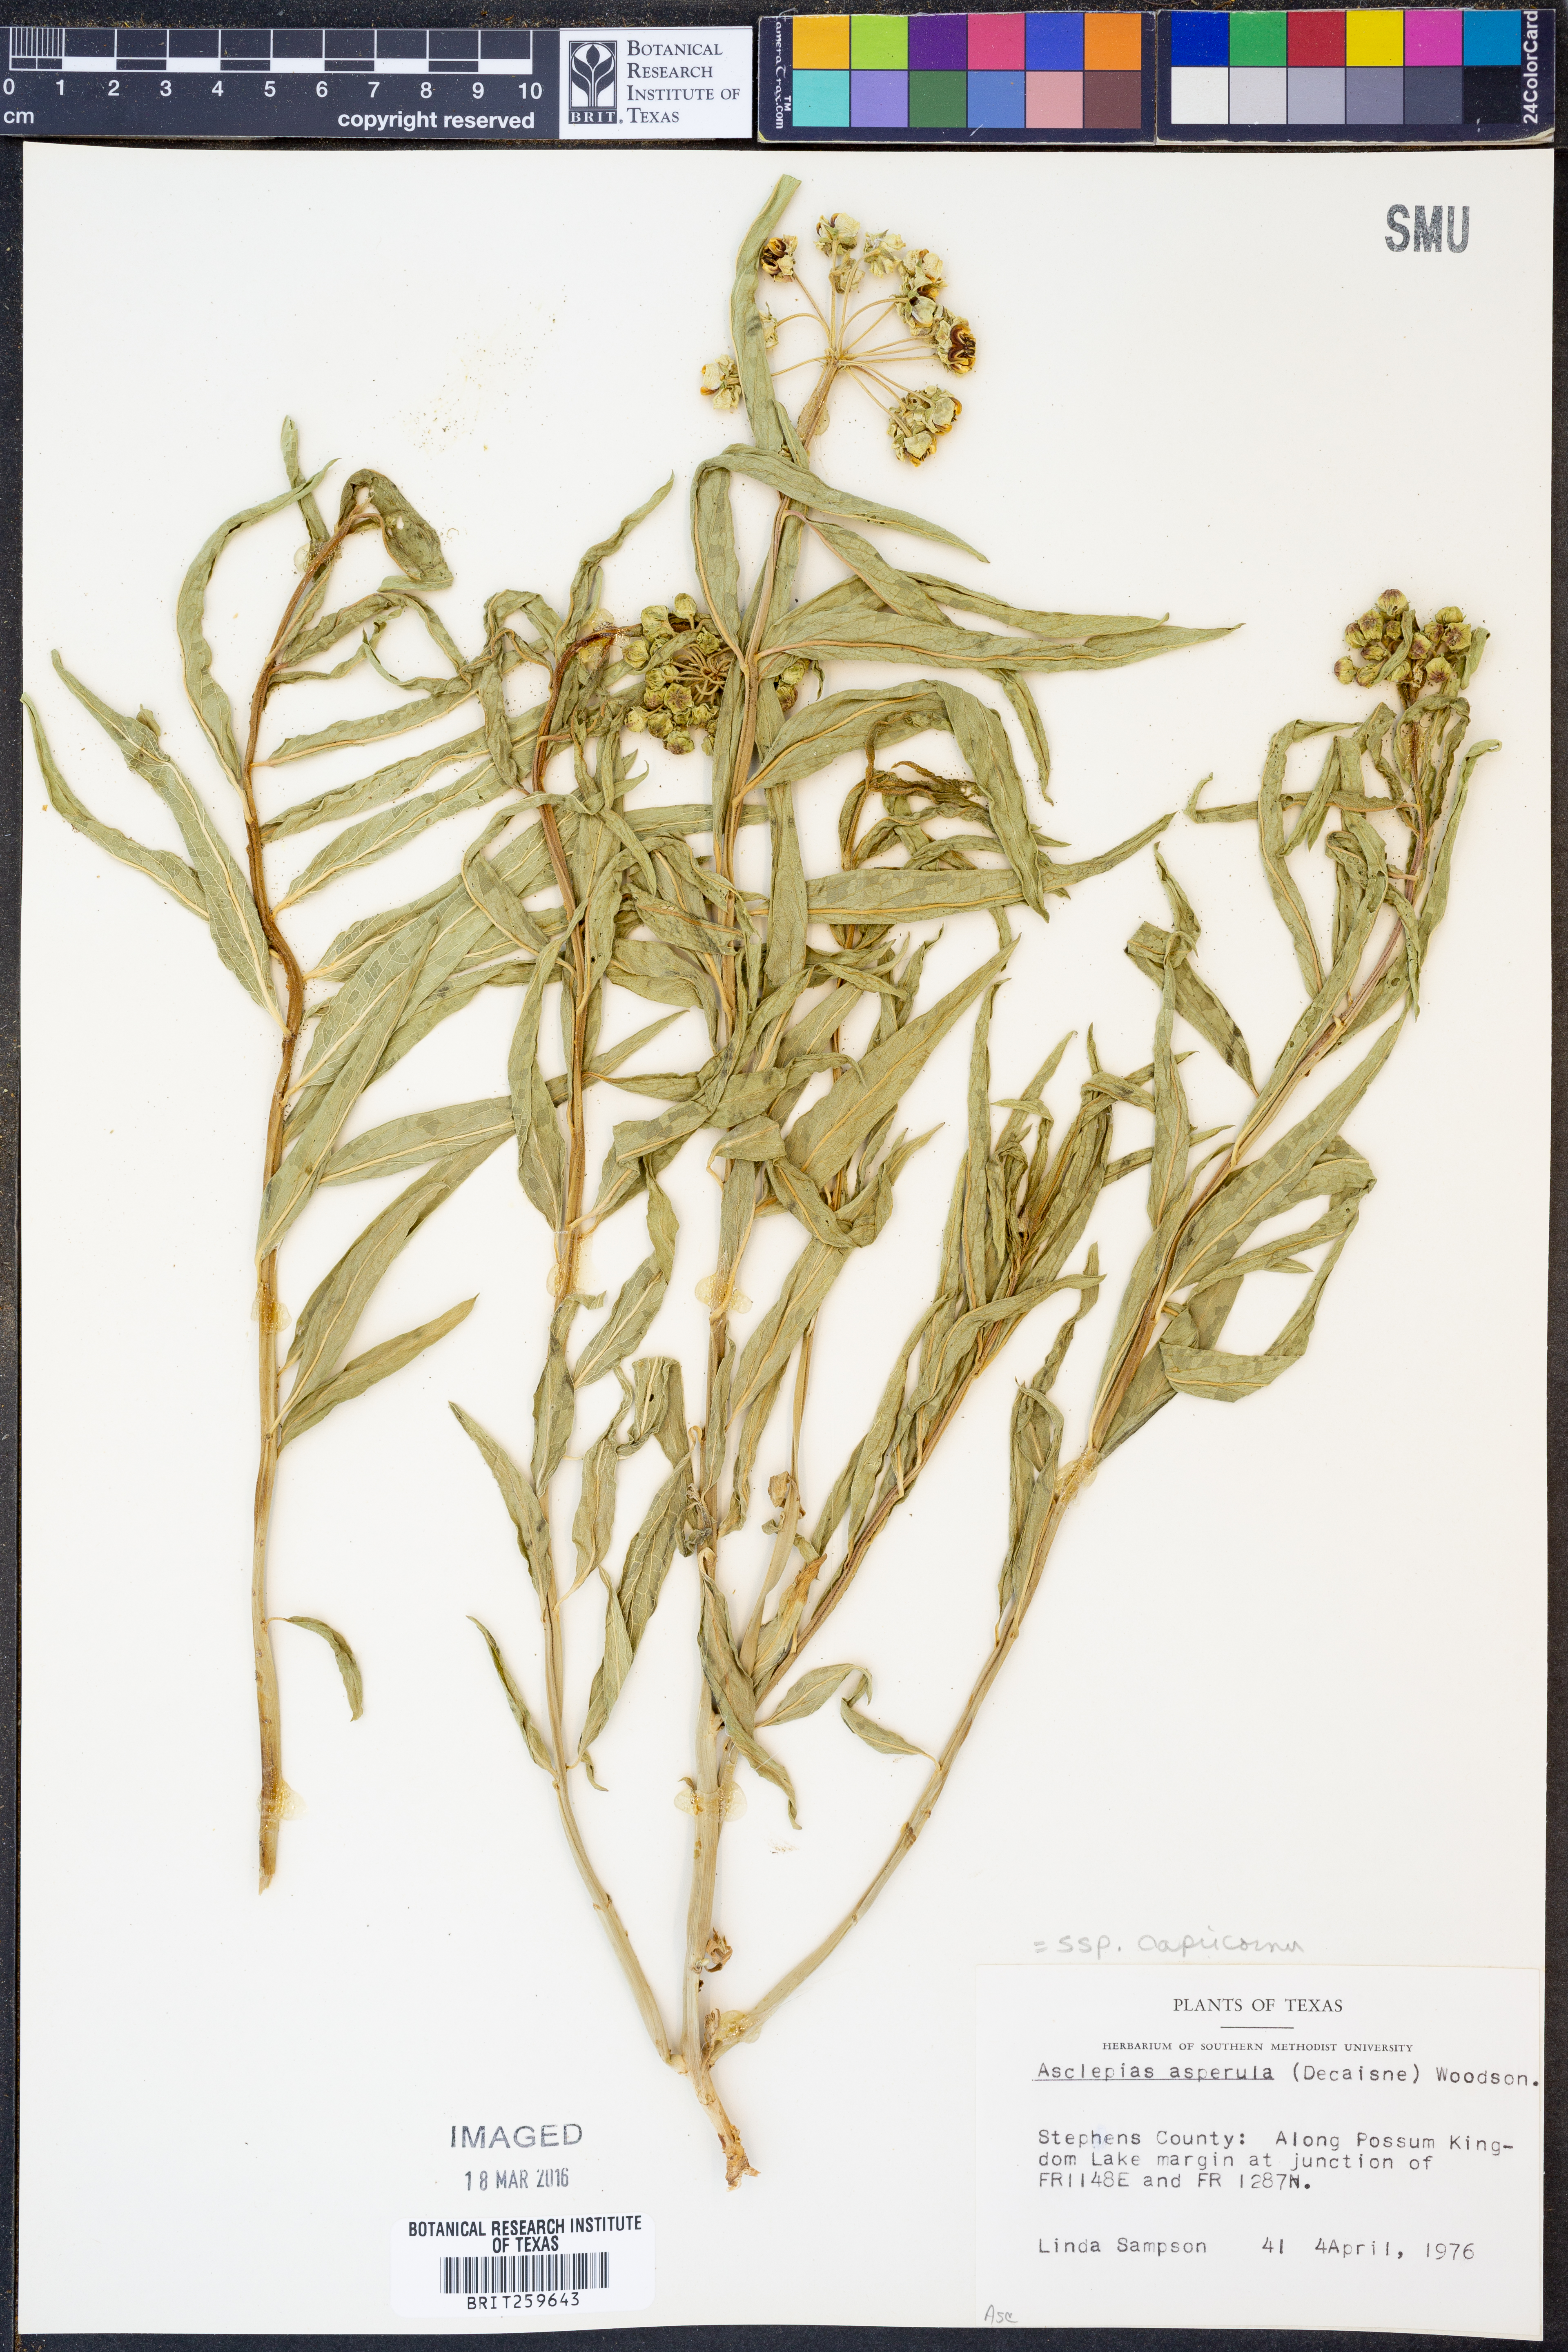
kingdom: Plantae
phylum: Tracheophyta
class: Magnoliopsida
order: Gentianales
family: Apocynaceae
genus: Asclepias
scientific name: Asclepias asperula
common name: Antelope horns
